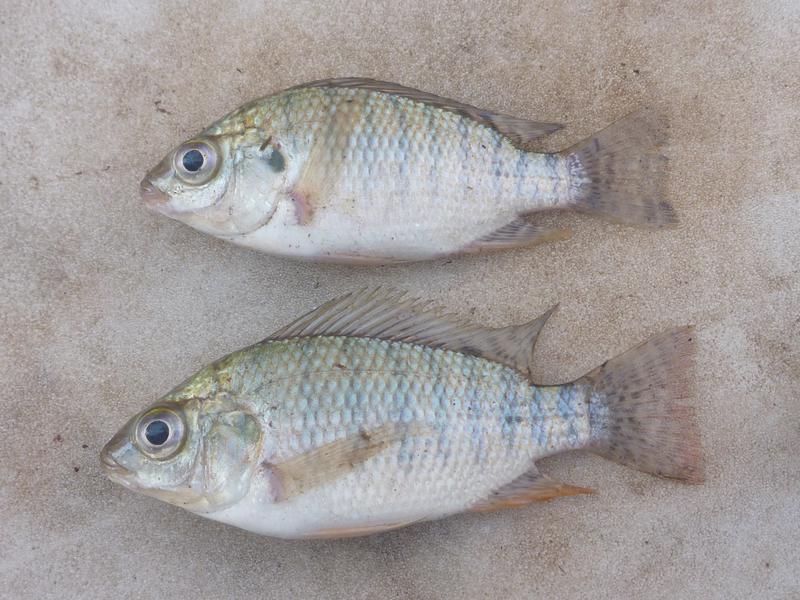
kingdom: Animalia
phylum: Chordata
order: Perciformes
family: Cichlidae
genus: Oreochromis
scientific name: Oreochromis niloticus
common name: Nile tilapia
